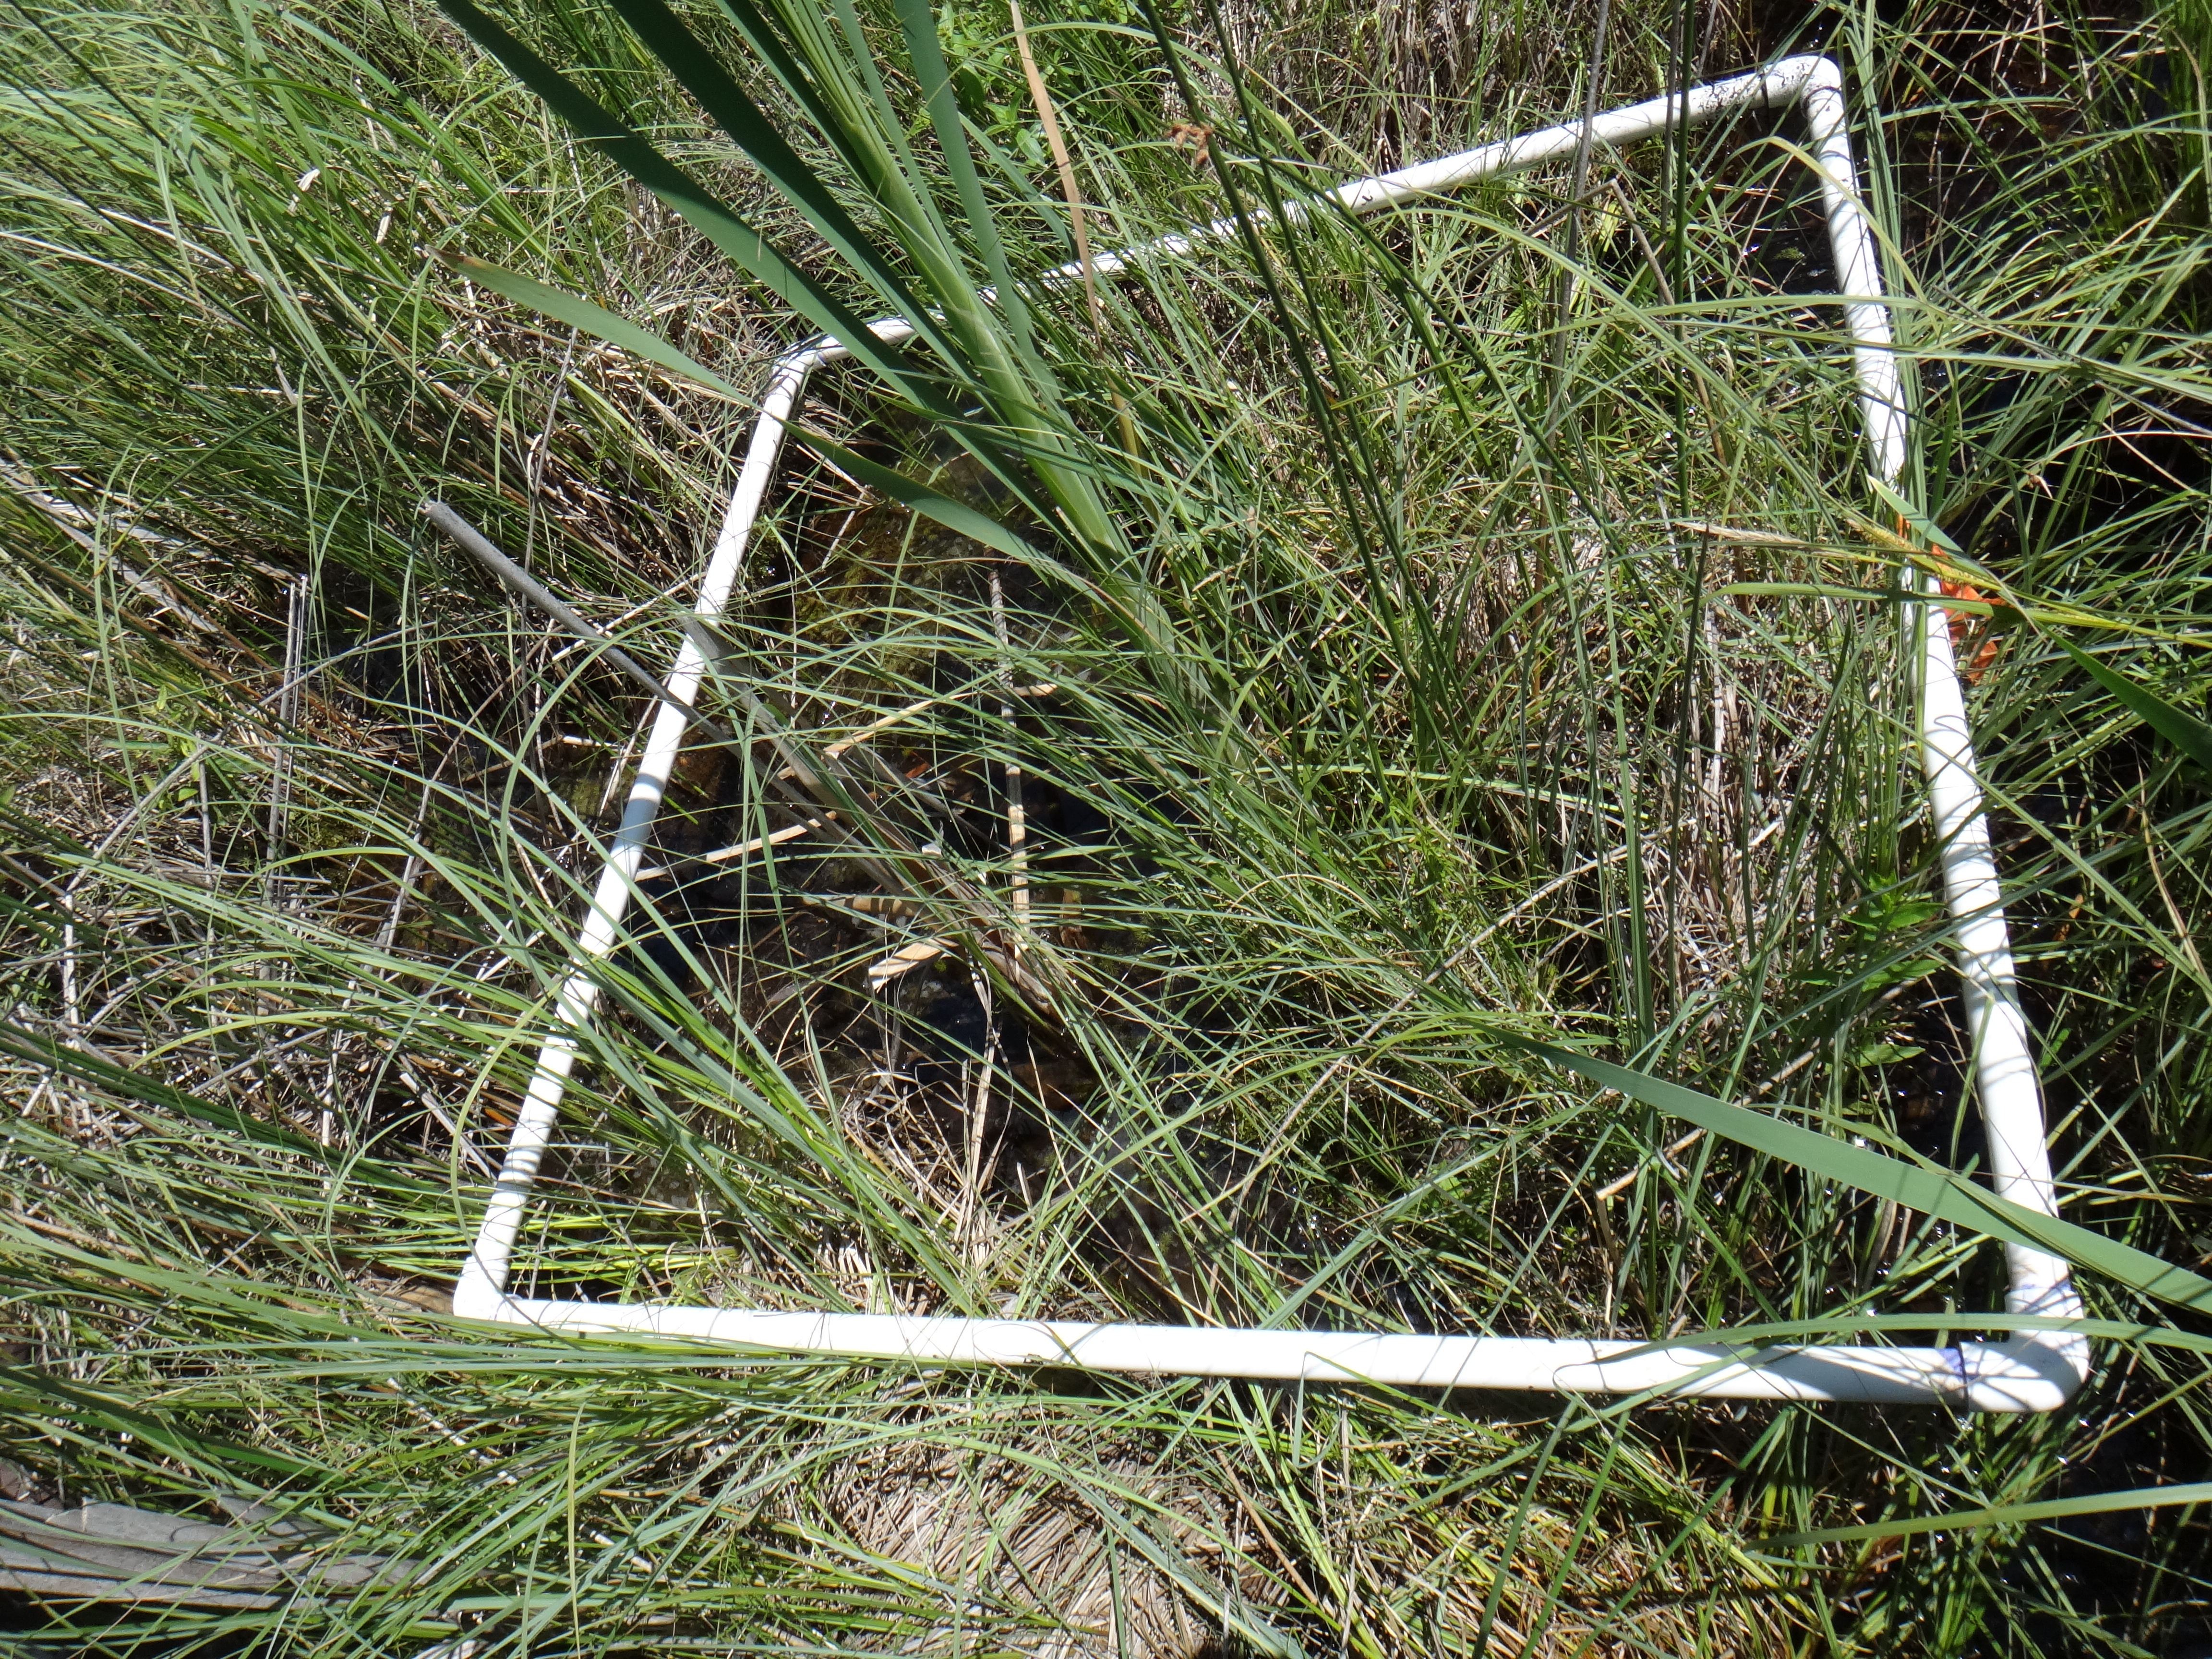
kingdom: Plantae
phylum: Tracheophyta
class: Liliopsida
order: Poales
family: Cyperaceae
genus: Carex
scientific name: Carex lasiocarpa
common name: Slender sedge
